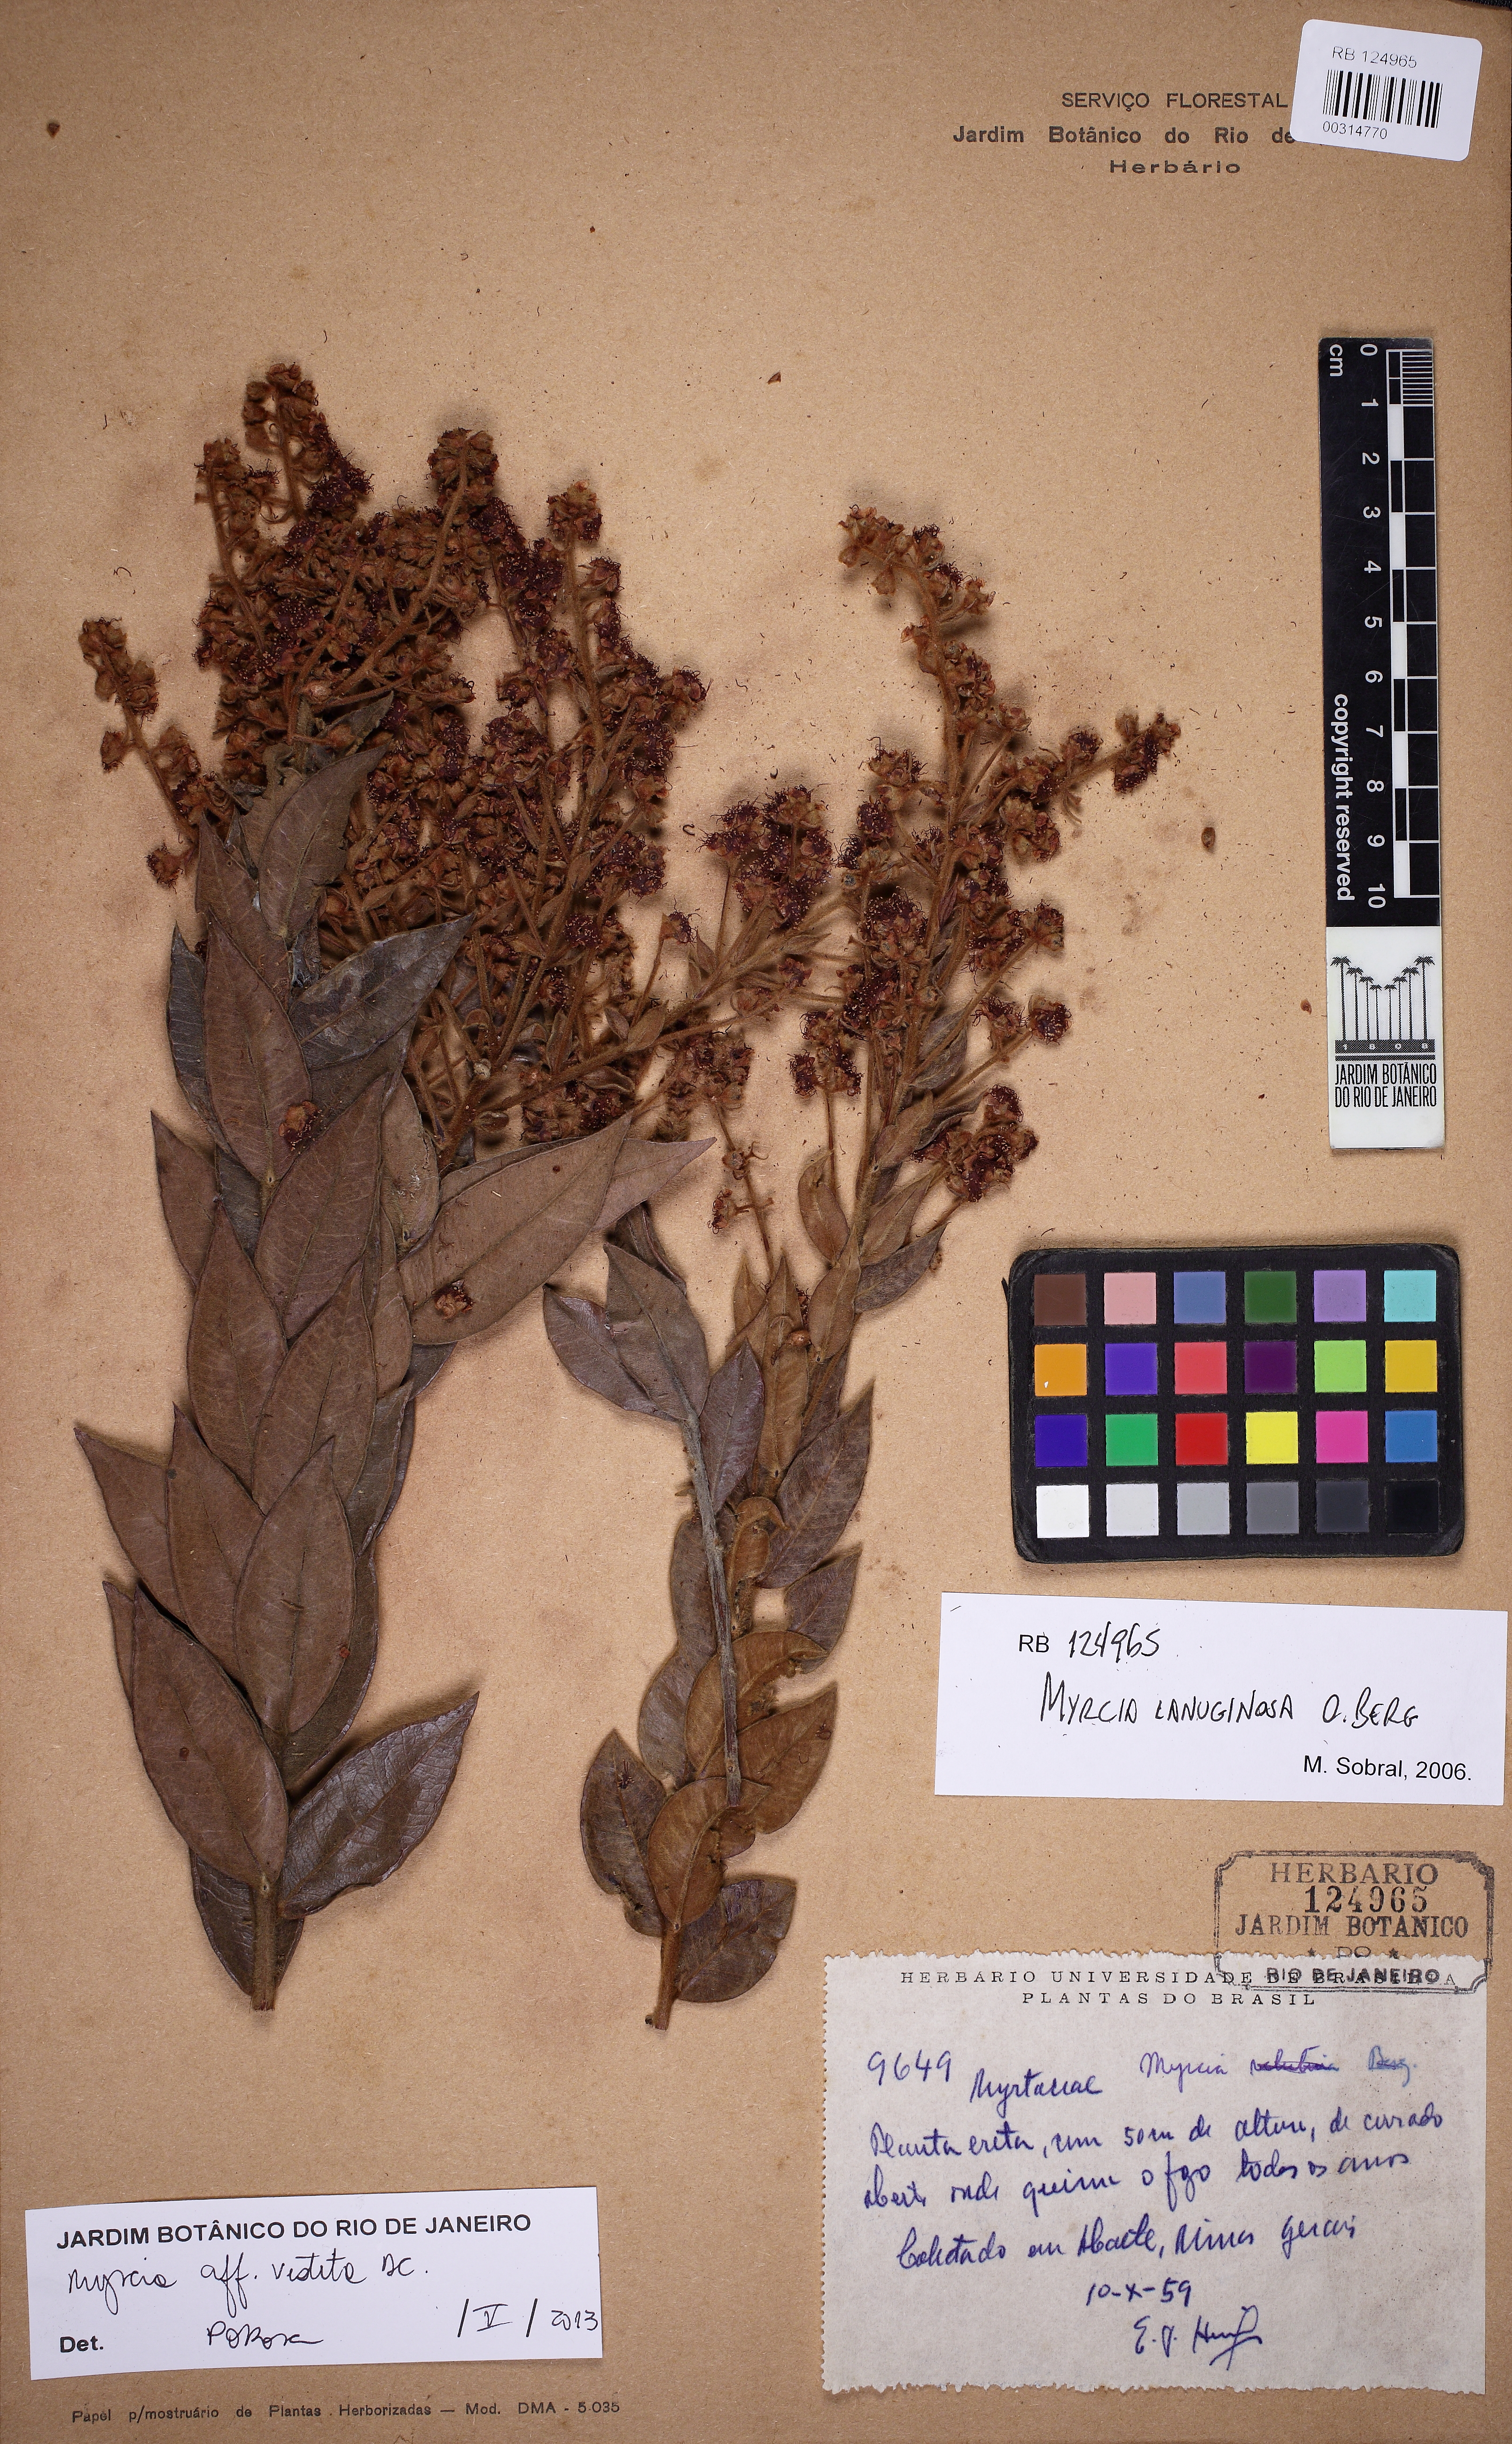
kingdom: Plantae
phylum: Tracheophyta
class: Magnoliopsida
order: Myrtales
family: Myrtaceae
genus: Myrcia
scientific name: Myrcia siriacoana
